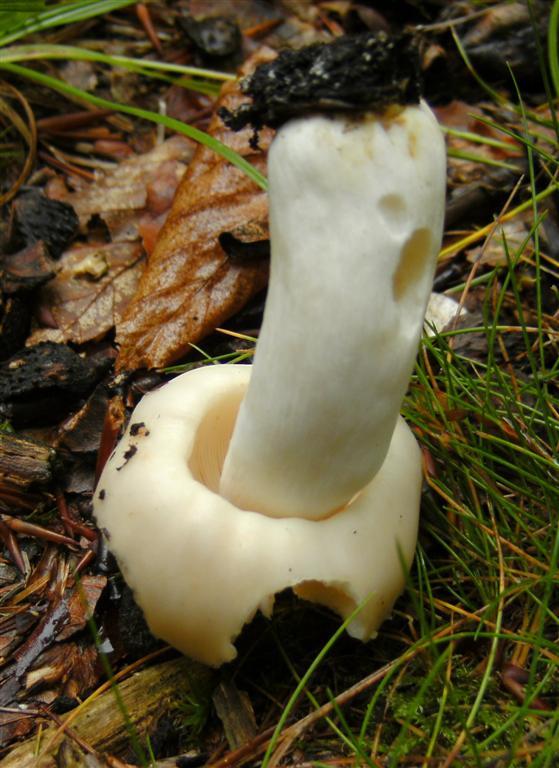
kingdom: Fungi
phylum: Basidiomycota
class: Agaricomycetes
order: Russulales
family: Russulaceae
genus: Russula
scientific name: Russula
